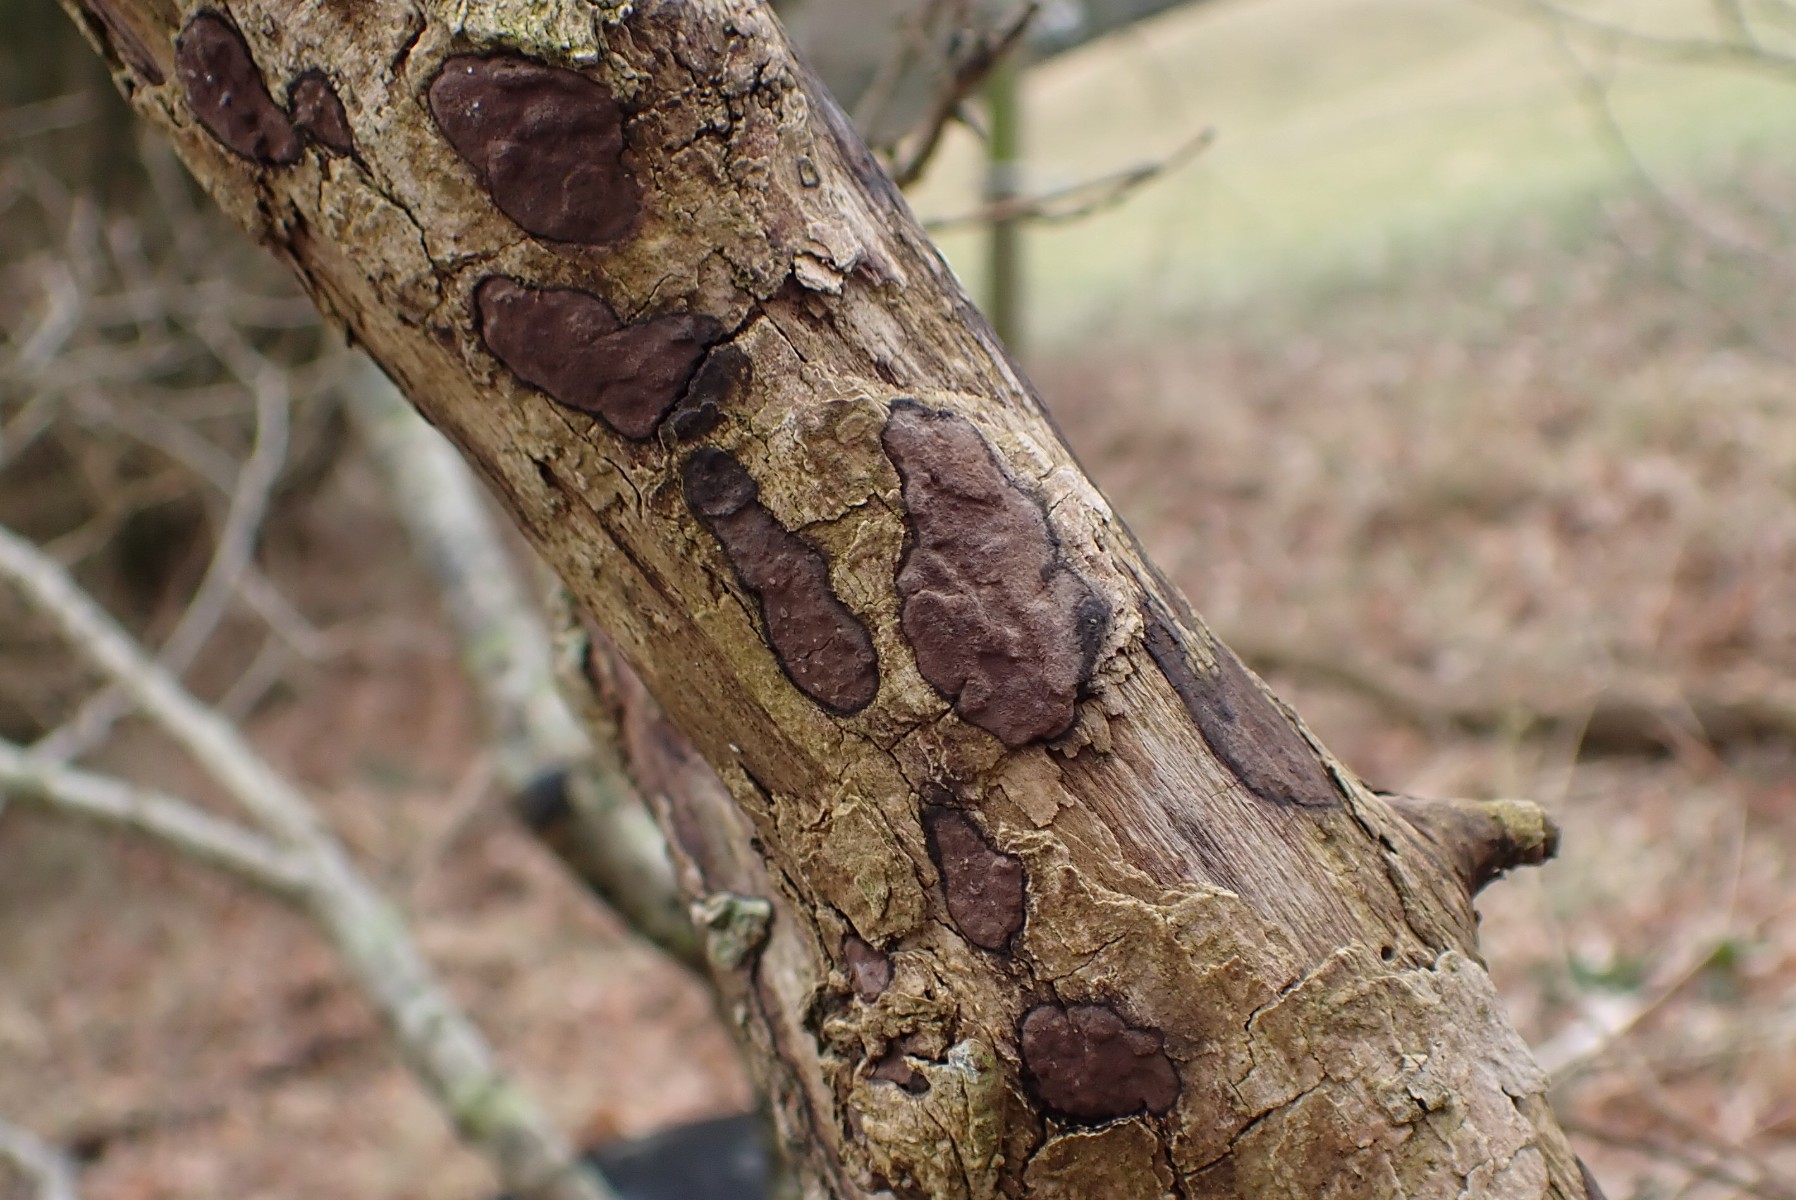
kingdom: Fungi
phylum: Ascomycota
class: Sordariomycetes
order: Xylariales
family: Hypoxylaceae
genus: Hypoxylon
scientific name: Hypoxylon petriniae
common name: nedsænket kulbær
